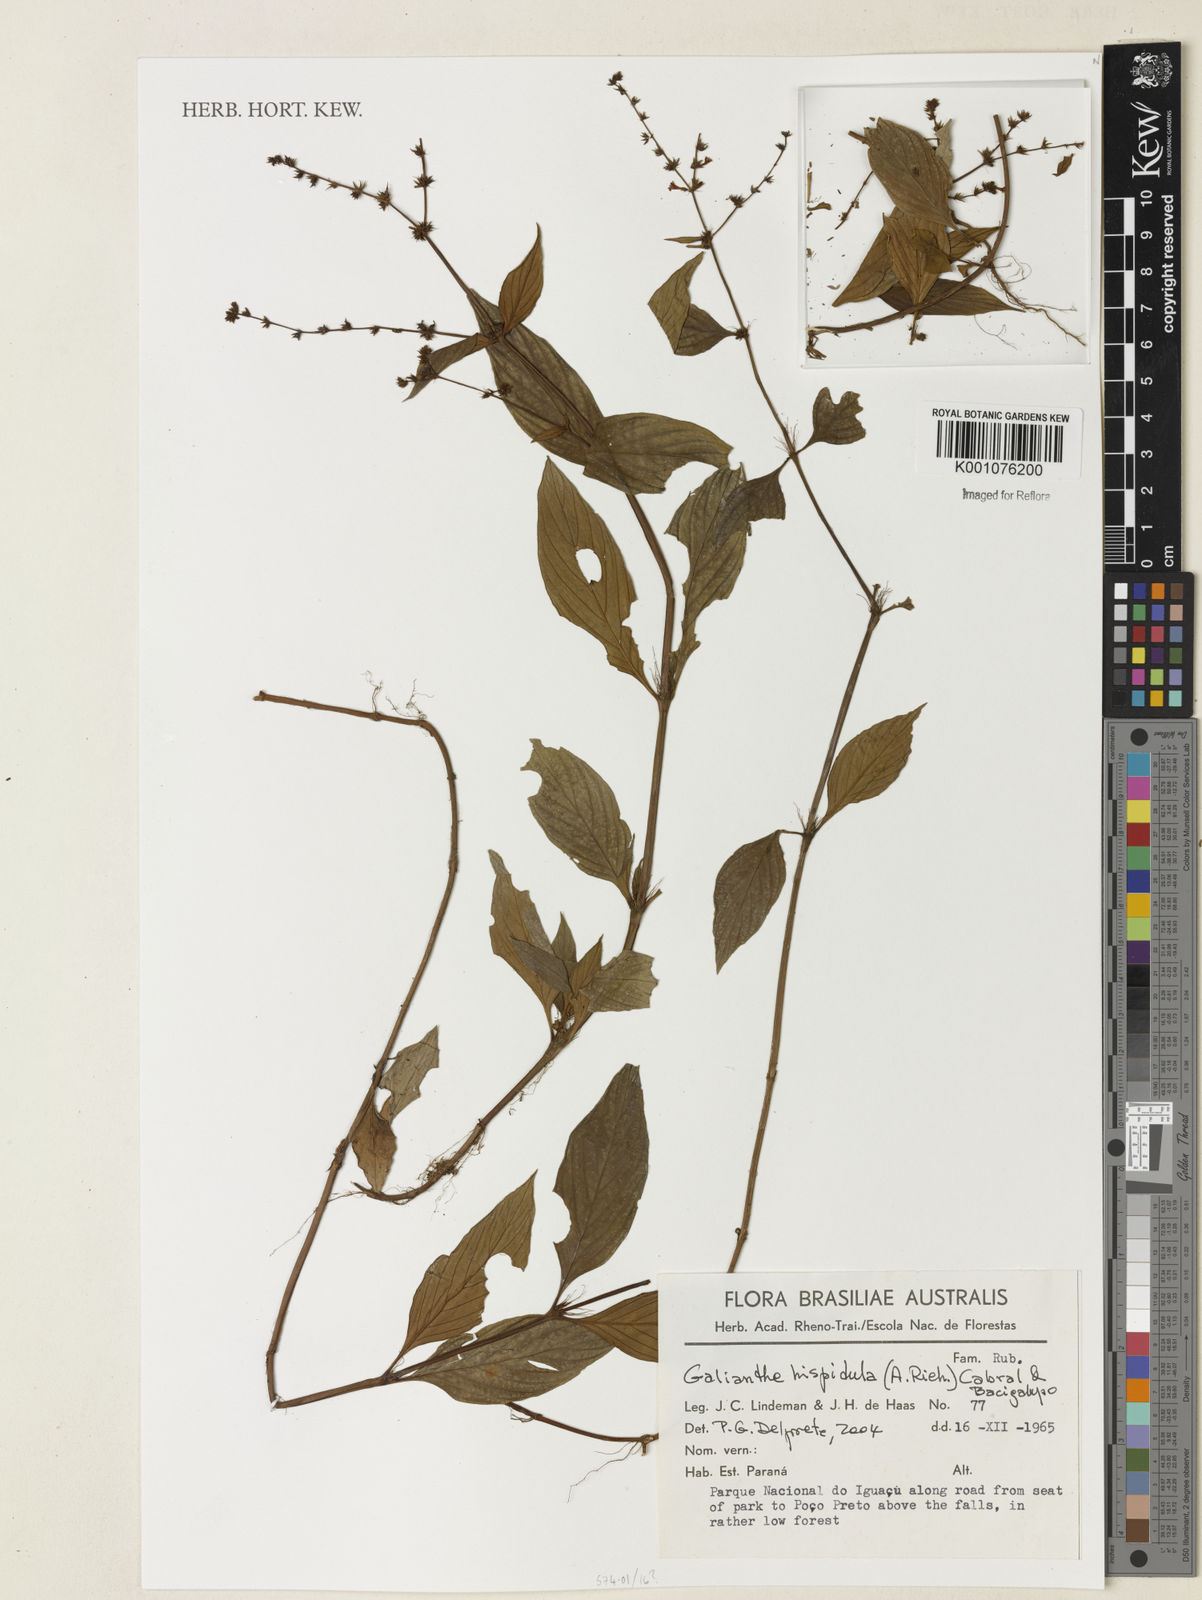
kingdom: Plantae
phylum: Tracheophyta
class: Magnoliopsida
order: Gentianales
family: Rubiaceae
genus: Spermacoce
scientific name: Spermacoce
